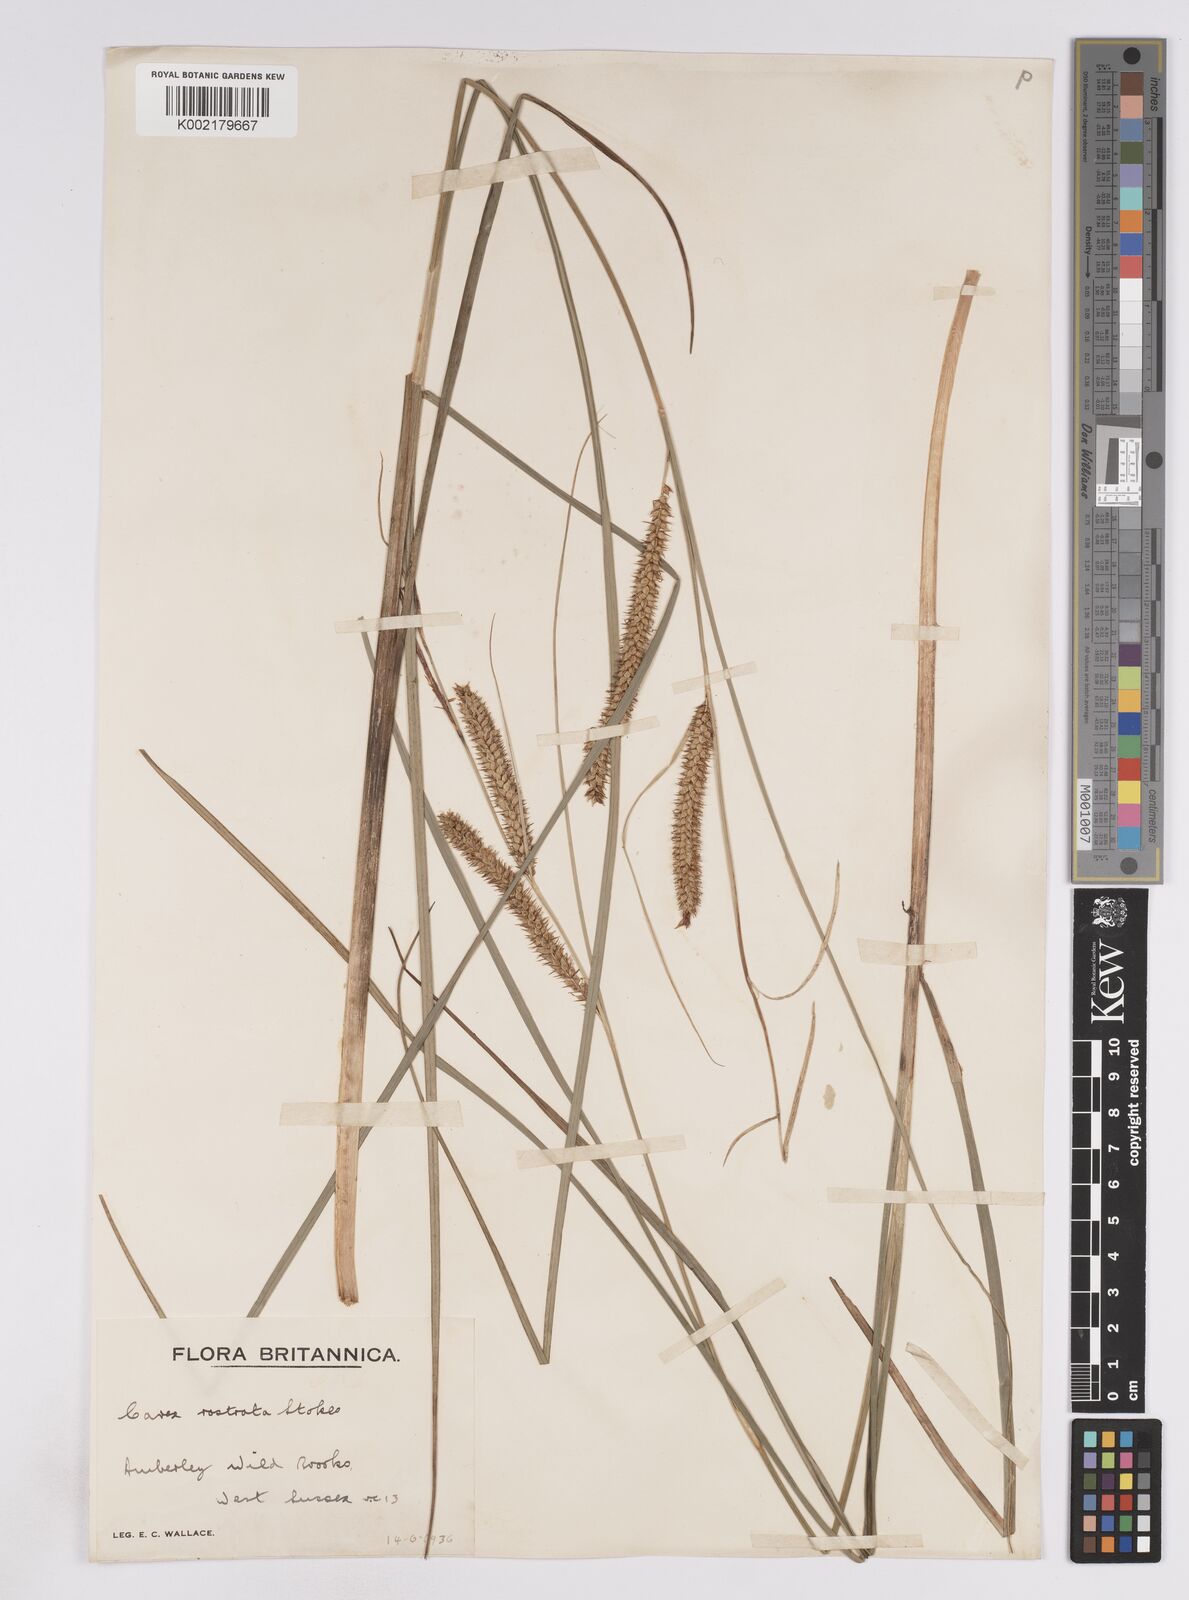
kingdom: Plantae
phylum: Tracheophyta
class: Liliopsida
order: Poales
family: Cyperaceae
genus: Carex
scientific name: Carex rostrata
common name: Bottle sedge
